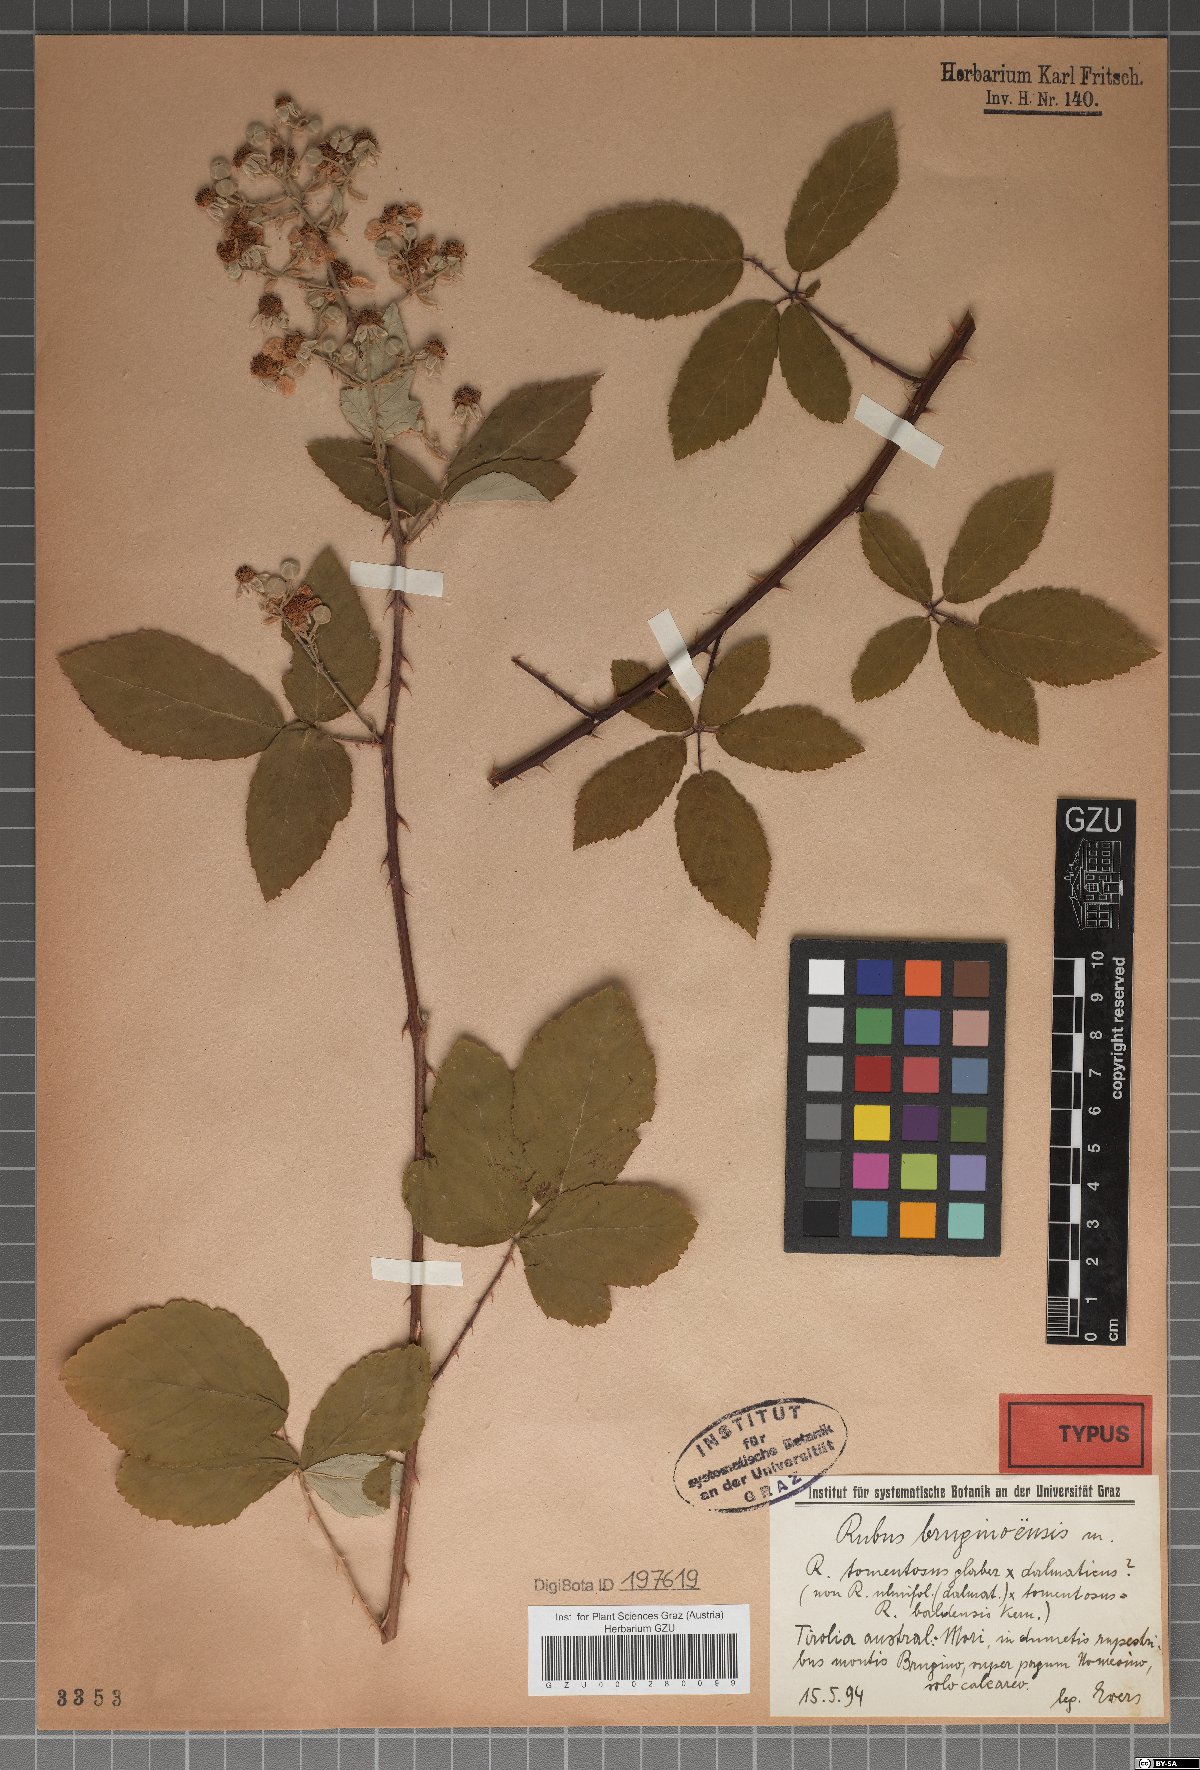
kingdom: Plantae
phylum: Tracheophyta
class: Magnoliopsida
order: Rosales
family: Rosaceae
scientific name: Rosaceae
